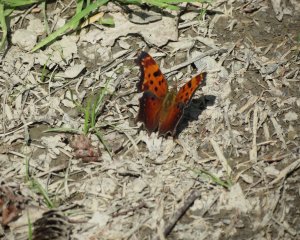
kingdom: Animalia
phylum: Arthropoda
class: Insecta
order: Lepidoptera
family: Nymphalidae
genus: Polygonia
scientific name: Polygonia progne
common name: Gray Comma
